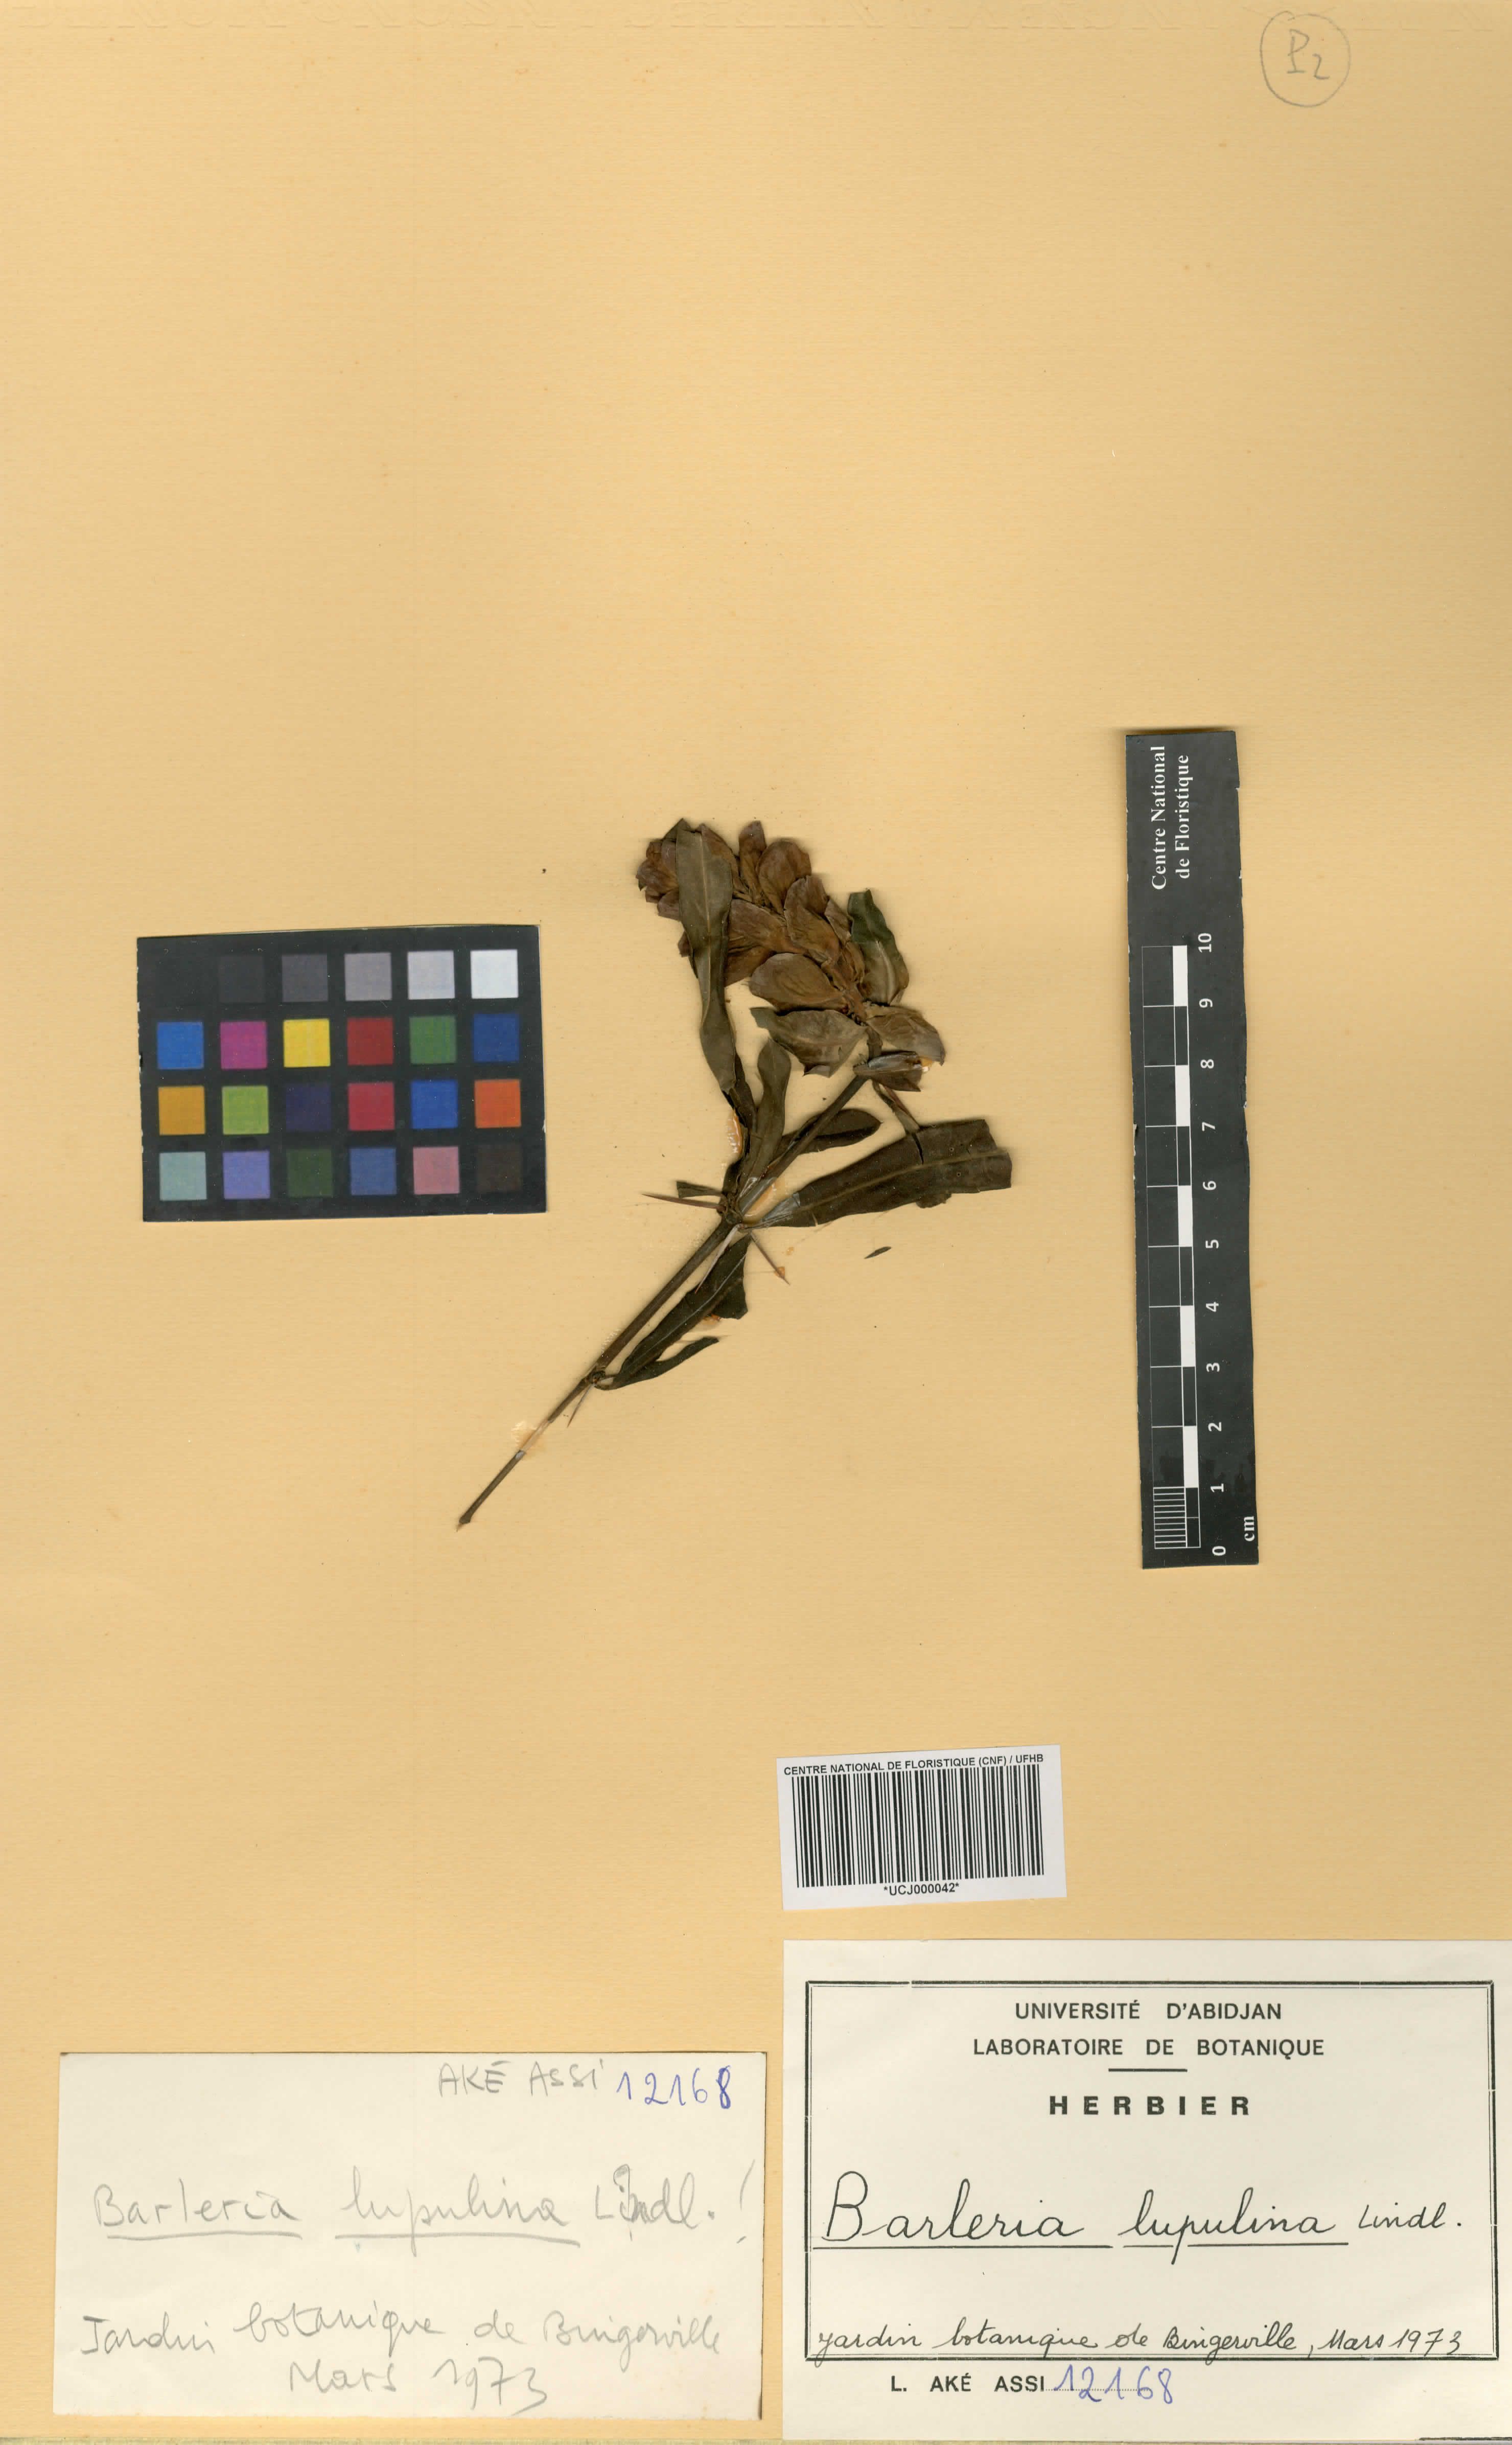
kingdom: Plantae
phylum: Tracheophyta
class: Magnoliopsida
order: Lamiales
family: Acanthaceae
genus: Barleria
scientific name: Barleria lupulina
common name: Hophead philippine violet
